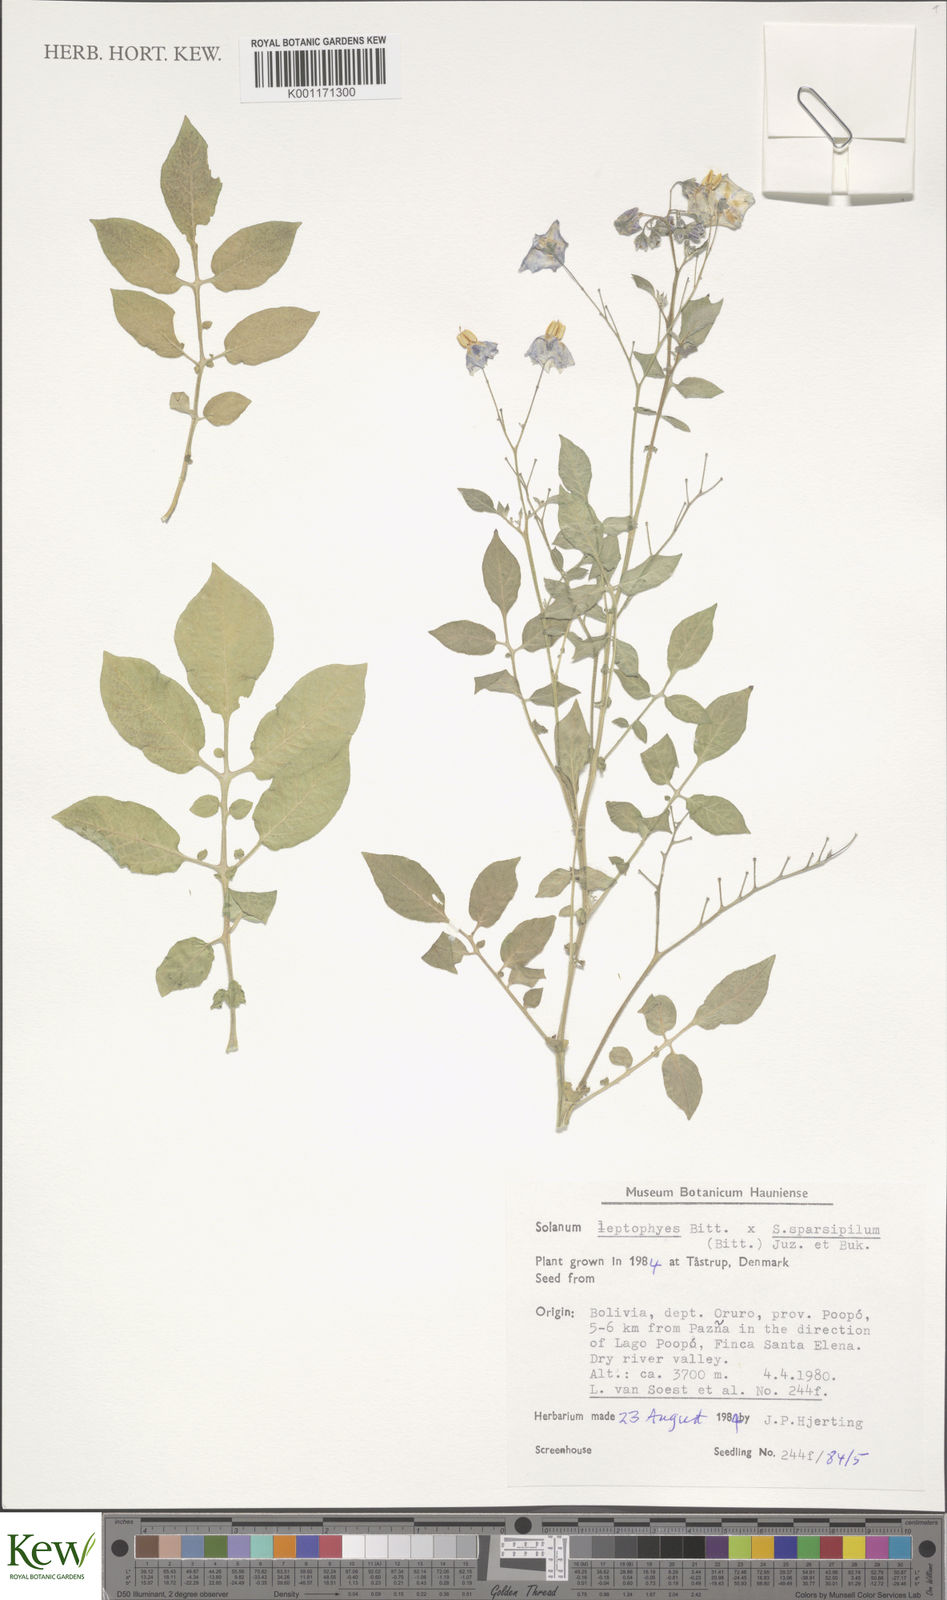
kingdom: Plantae
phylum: Tracheophyta
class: Magnoliopsida
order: Solanales
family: Solanaceae
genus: Solanum
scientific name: Solanum brevicaule
